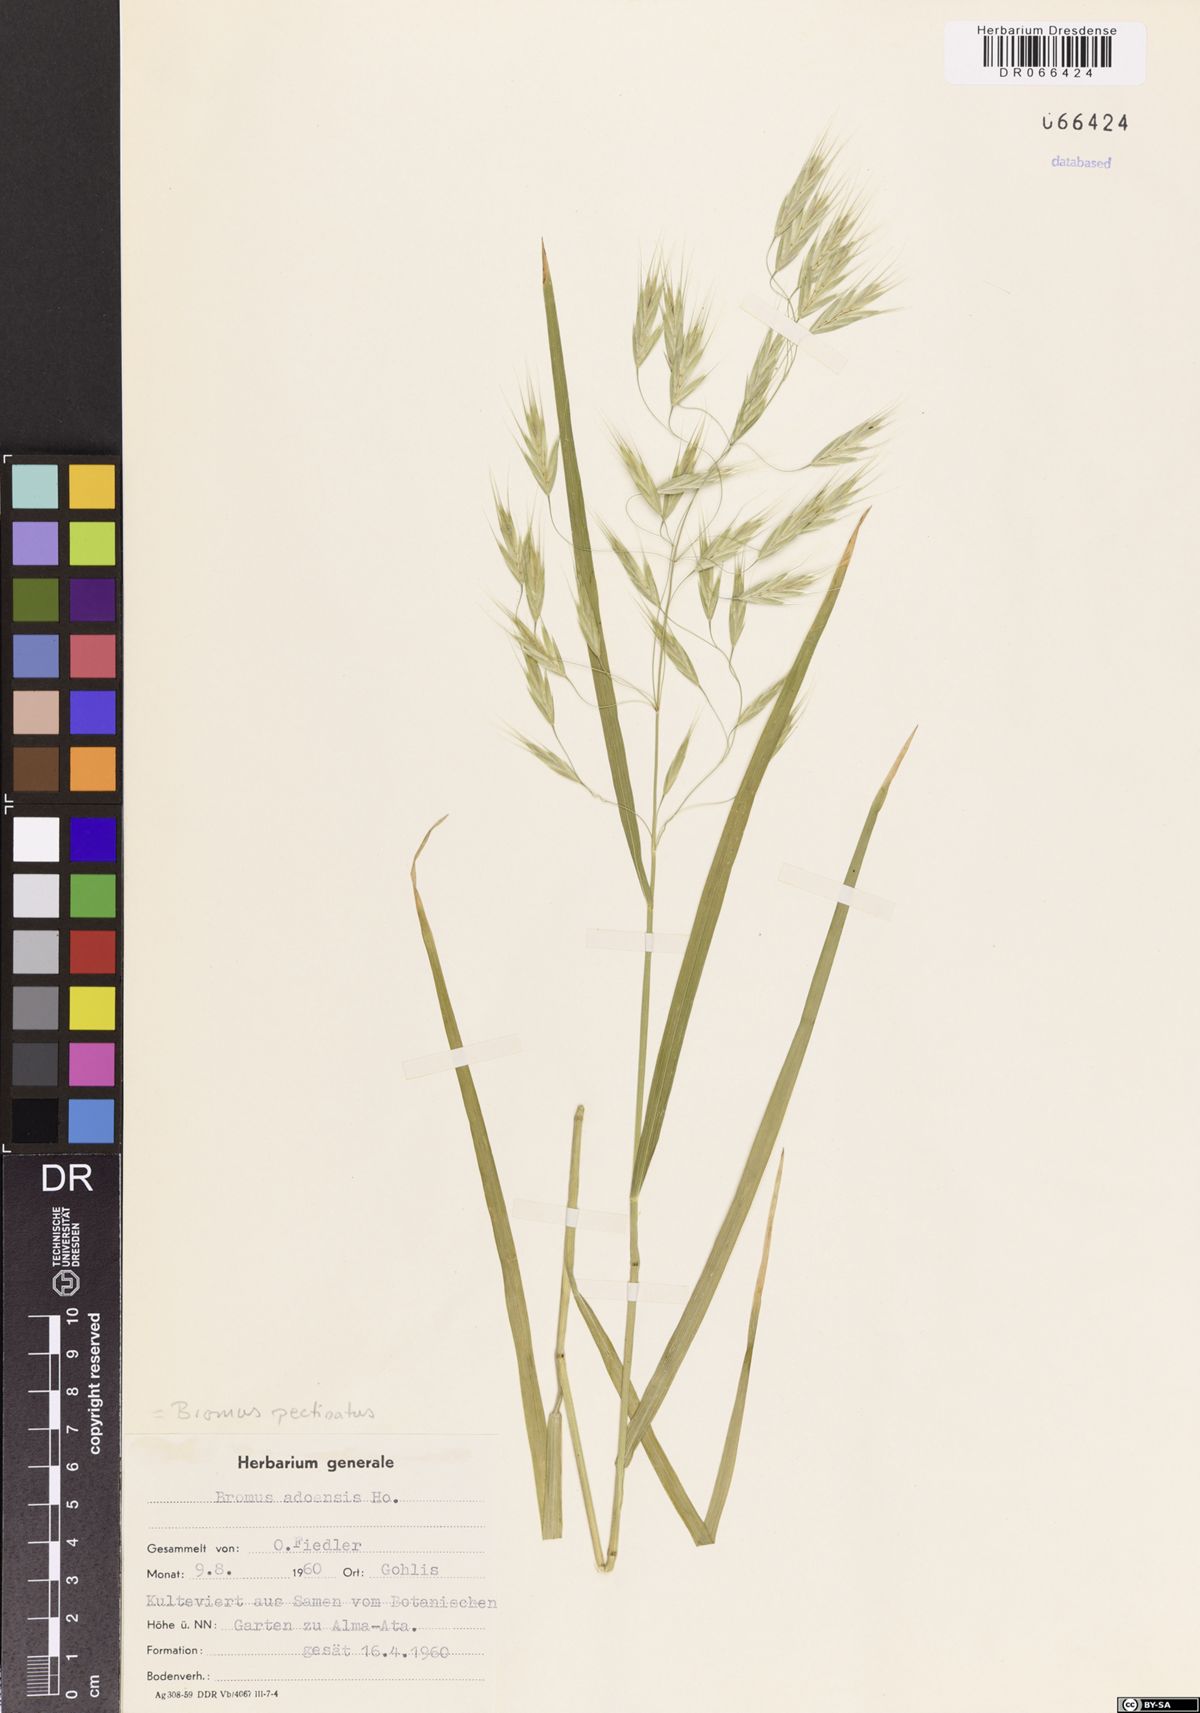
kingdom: Plantae
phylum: Tracheophyta
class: Liliopsida
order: Poales
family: Poaceae
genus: Bromus
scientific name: Bromus pectinatus
